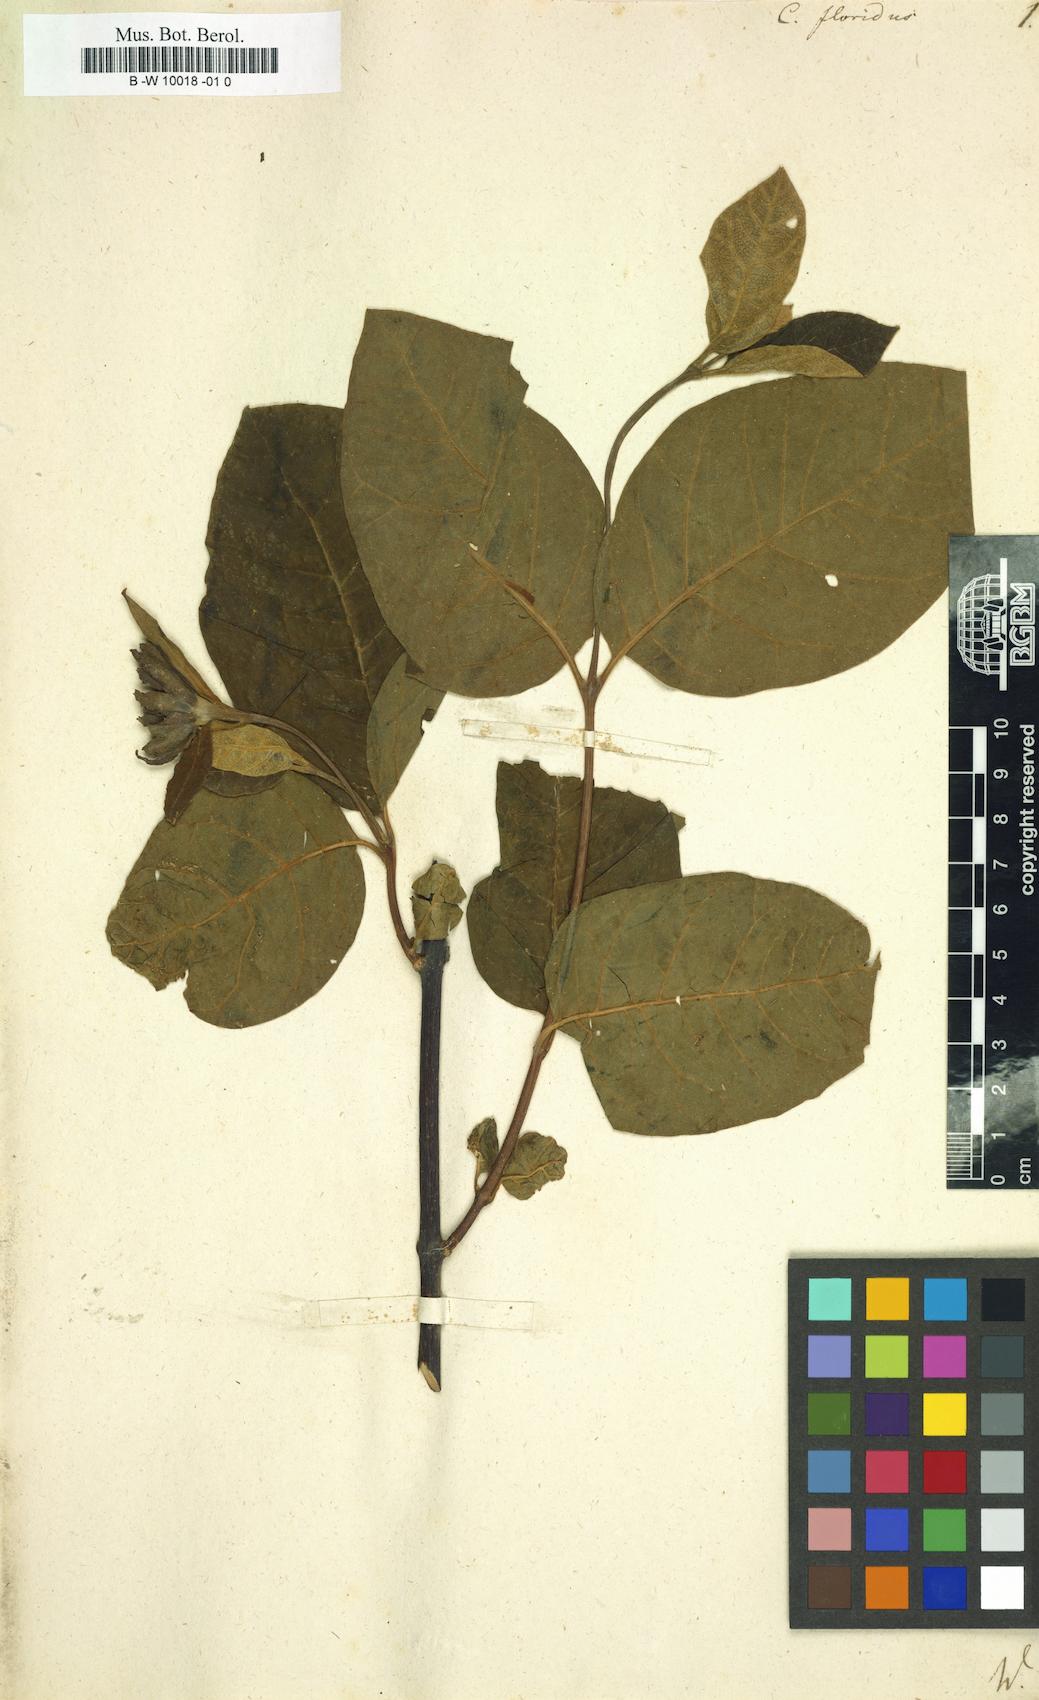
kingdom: Plantae
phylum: Tracheophyta
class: Magnoliopsida
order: Laurales
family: Calycanthaceae
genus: Calycanthus
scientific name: Calycanthus floridus
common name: Carolina-allspice
